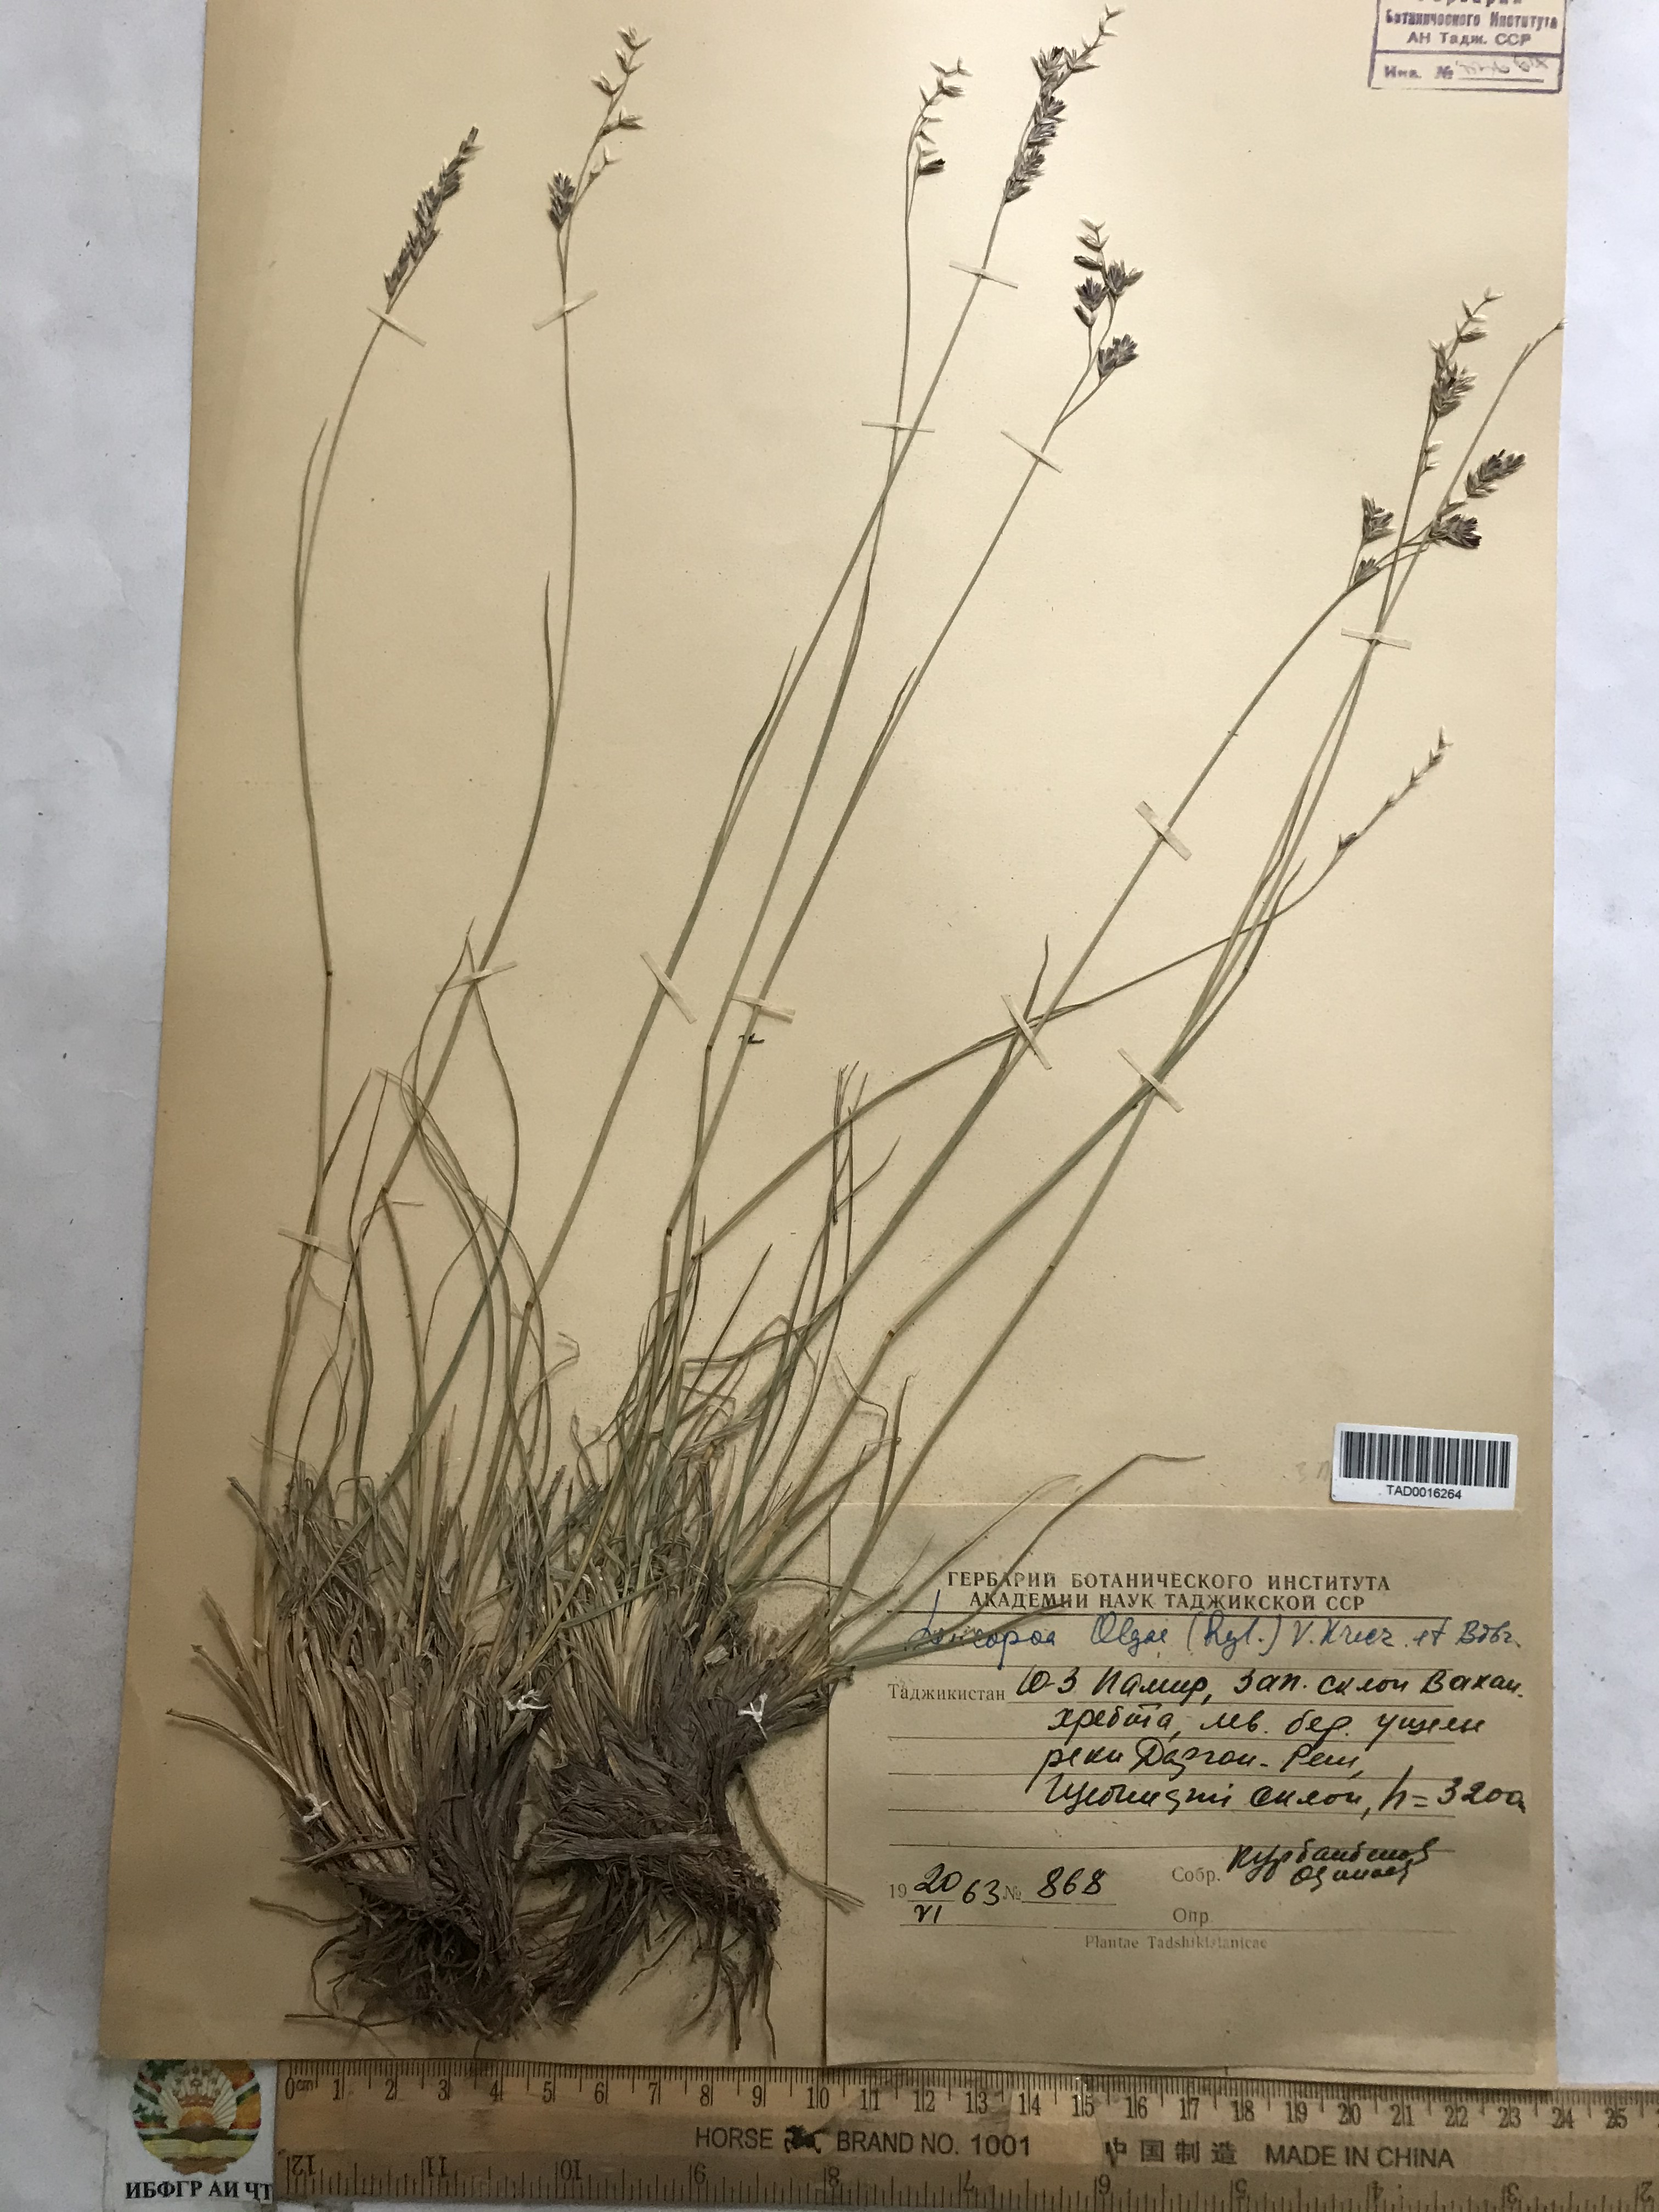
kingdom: Plantae
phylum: Tracheophyta
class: Liliopsida
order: Poales
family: Poaceae
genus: Festuca
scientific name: Festuca
